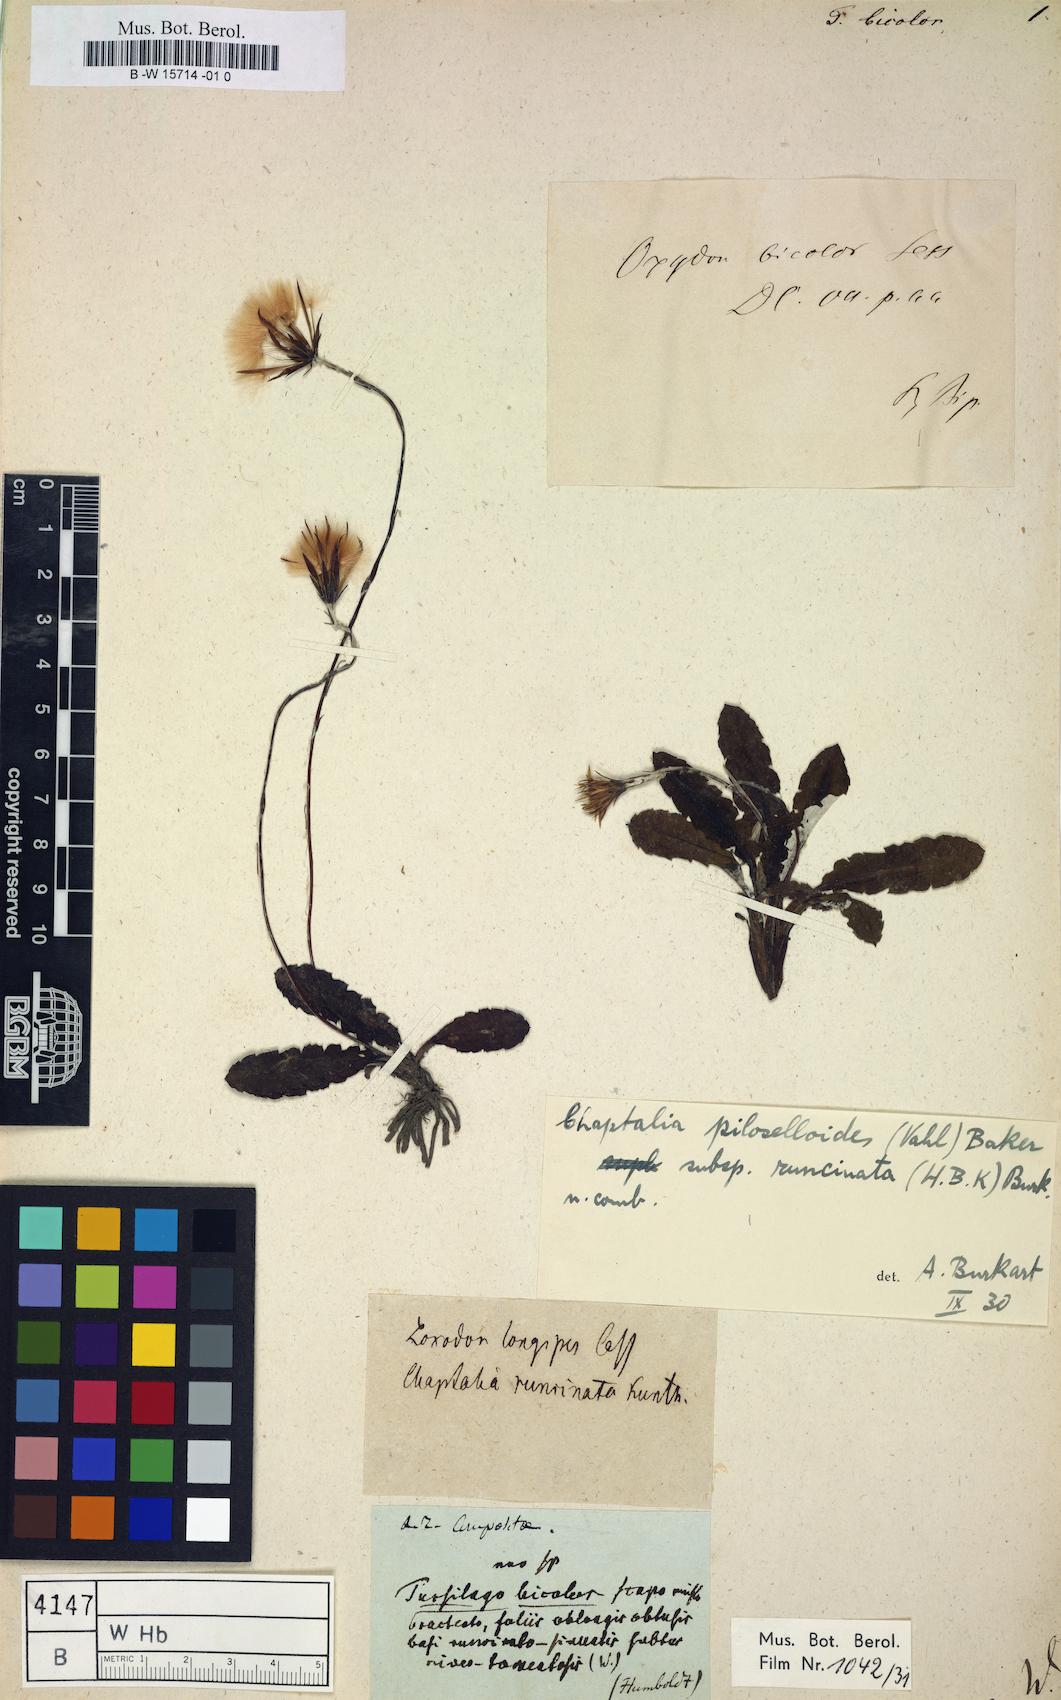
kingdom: Plantae
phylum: Tracheophyta
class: Magnoliopsida
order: Asterales
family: Asteraceae
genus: Chaptalia
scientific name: Chaptalia runcinata
